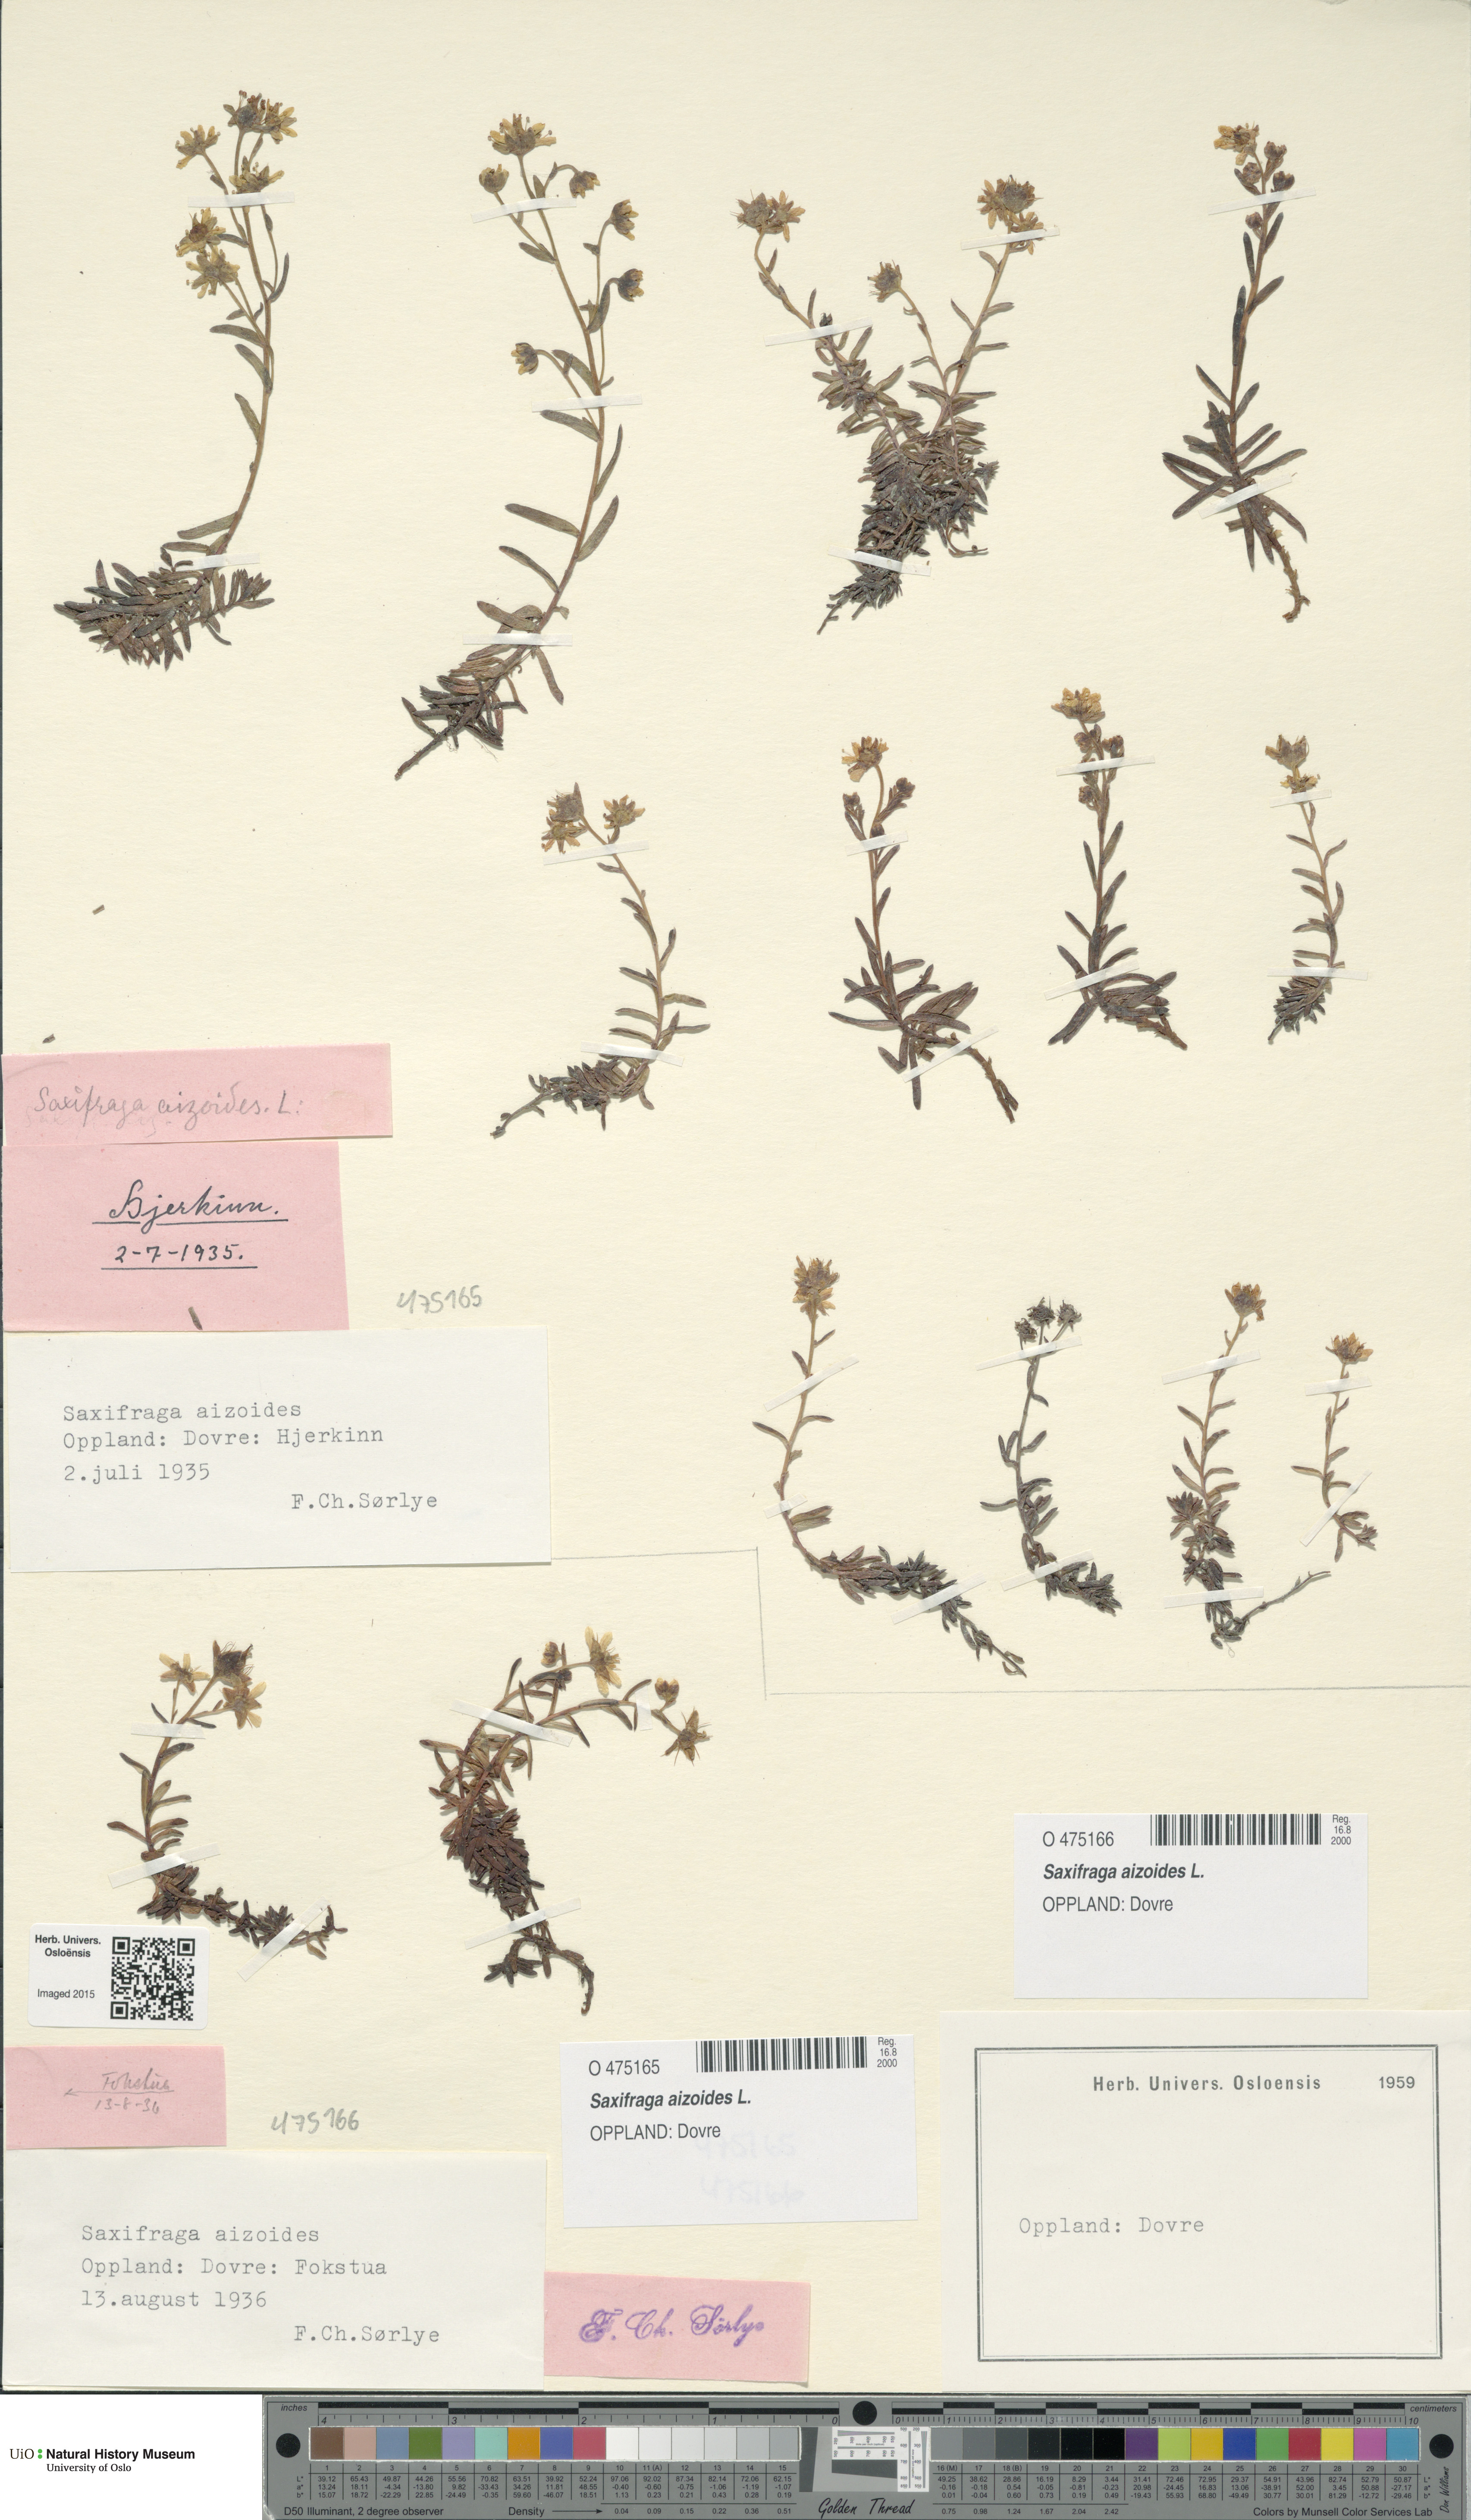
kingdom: Plantae
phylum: Tracheophyta
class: Magnoliopsida
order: Saxifragales
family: Saxifragaceae
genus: Saxifraga
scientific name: Saxifraga aizoides
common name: Yellow mountain saxifrage
